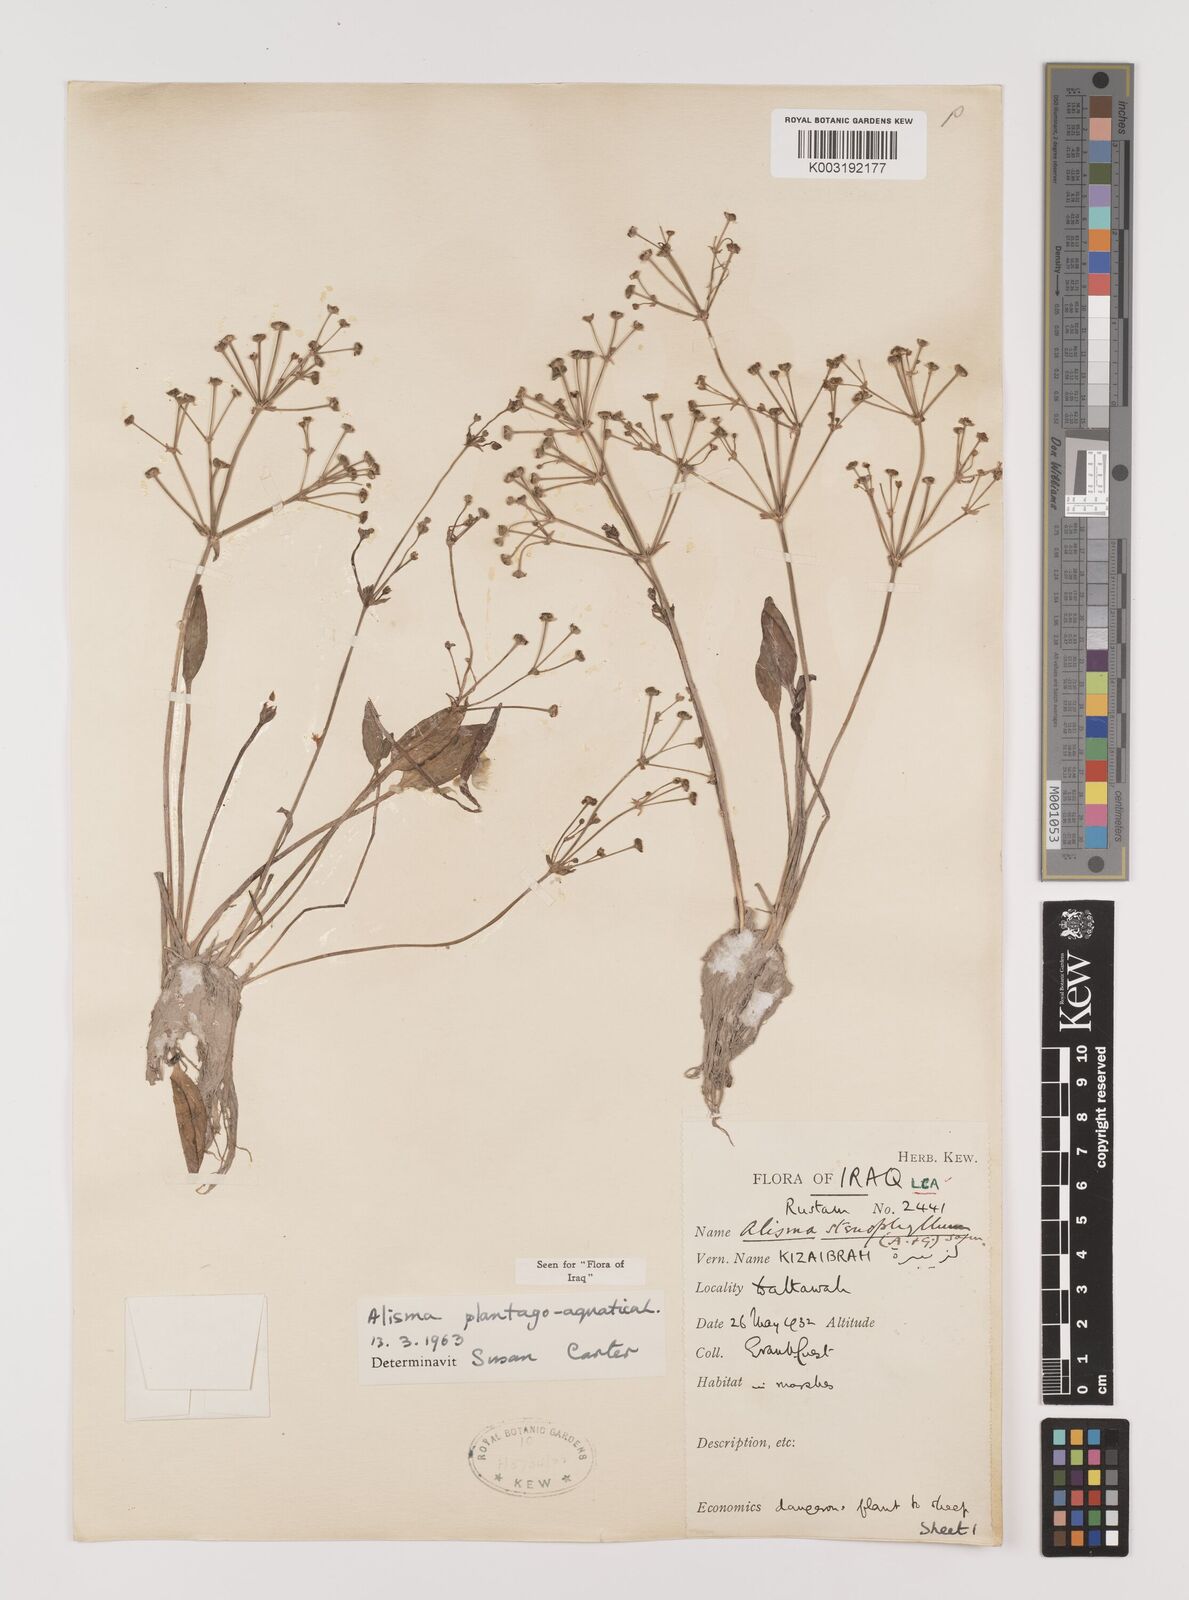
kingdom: Plantae
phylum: Tracheophyta
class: Liliopsida
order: Alismatales
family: Alismataceae
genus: Alisma
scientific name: Alisma plantago-aquatica
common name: Water-plantain
